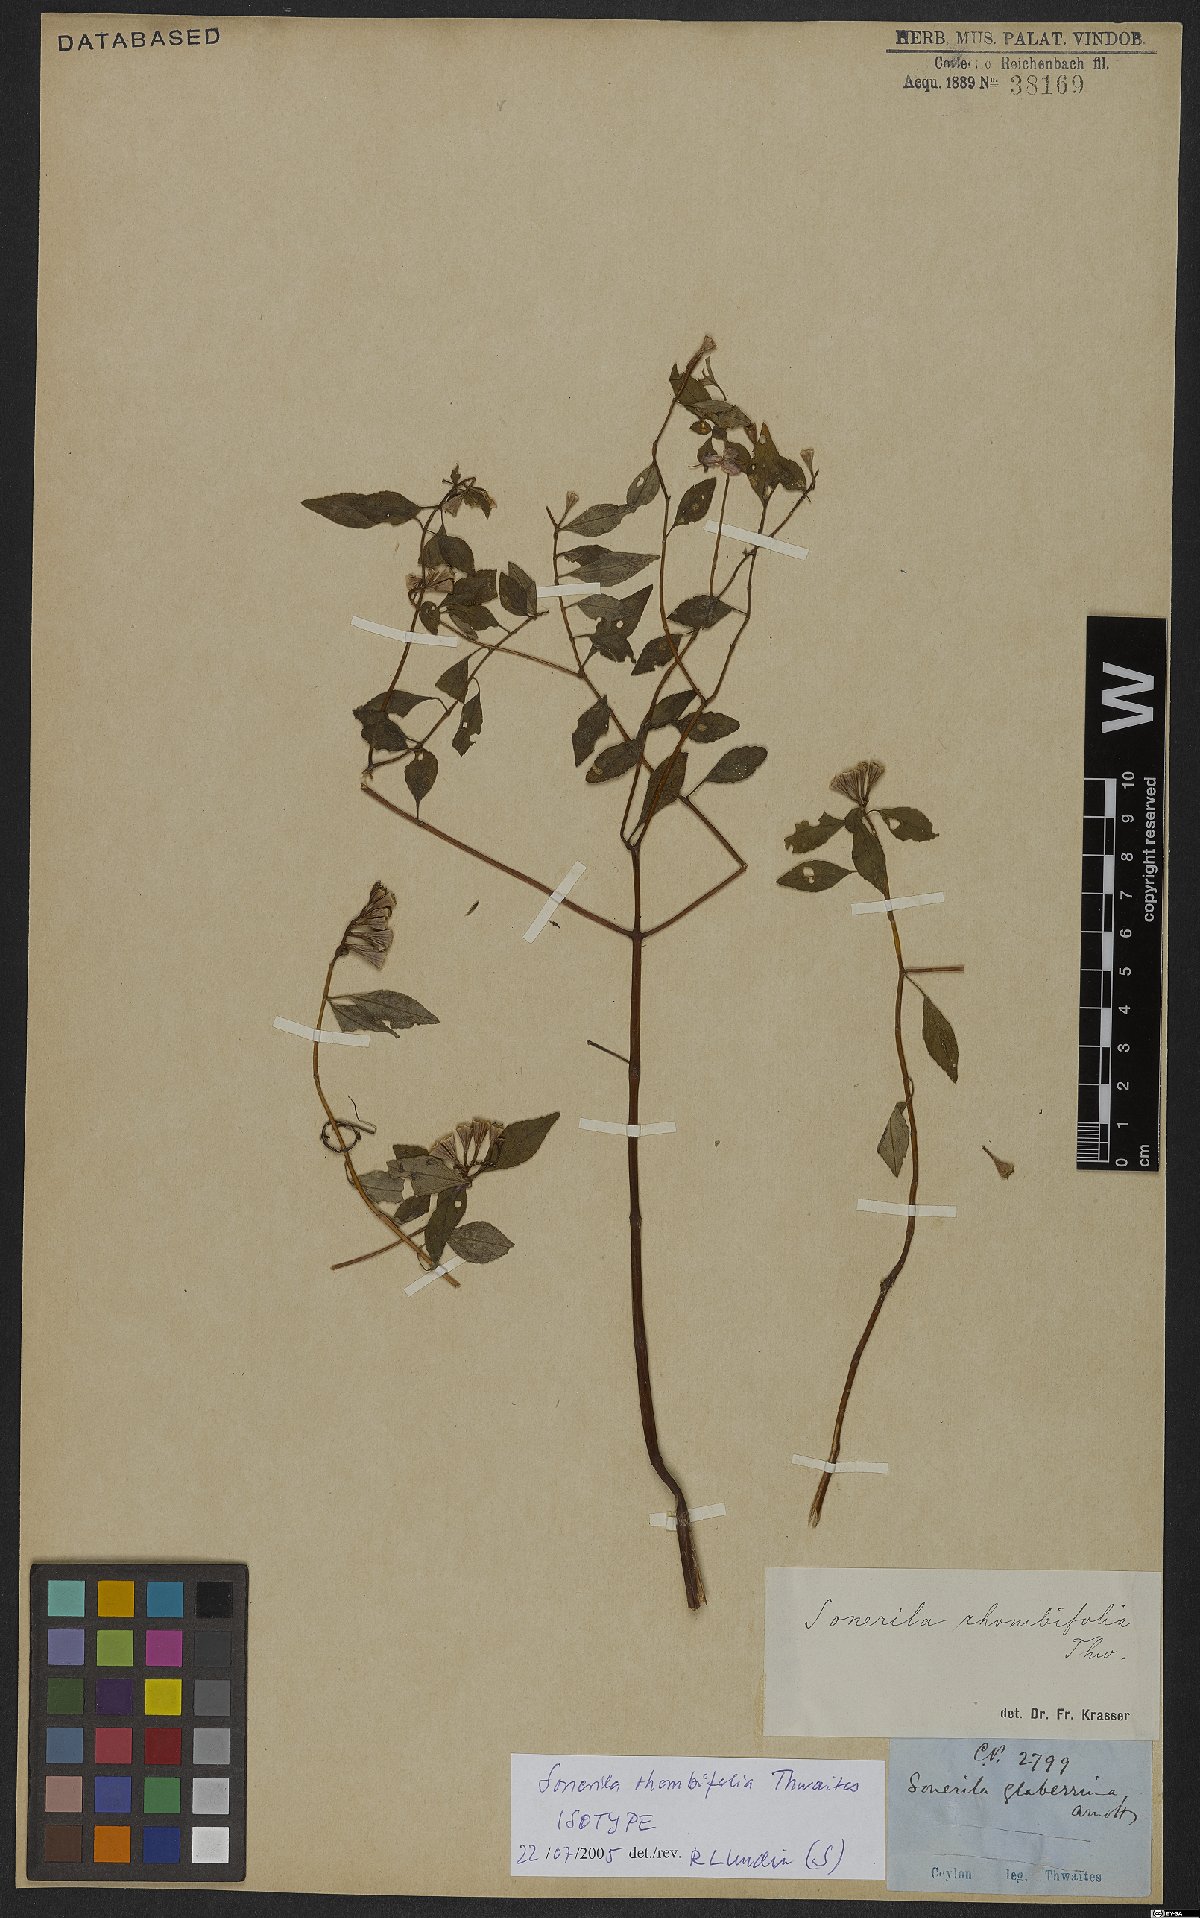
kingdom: Plantae
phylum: Tracheophyta
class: Magnoliopsida
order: Myrtales
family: Melastomataceae
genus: Sonerila
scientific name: Sonerila rhombifolia
